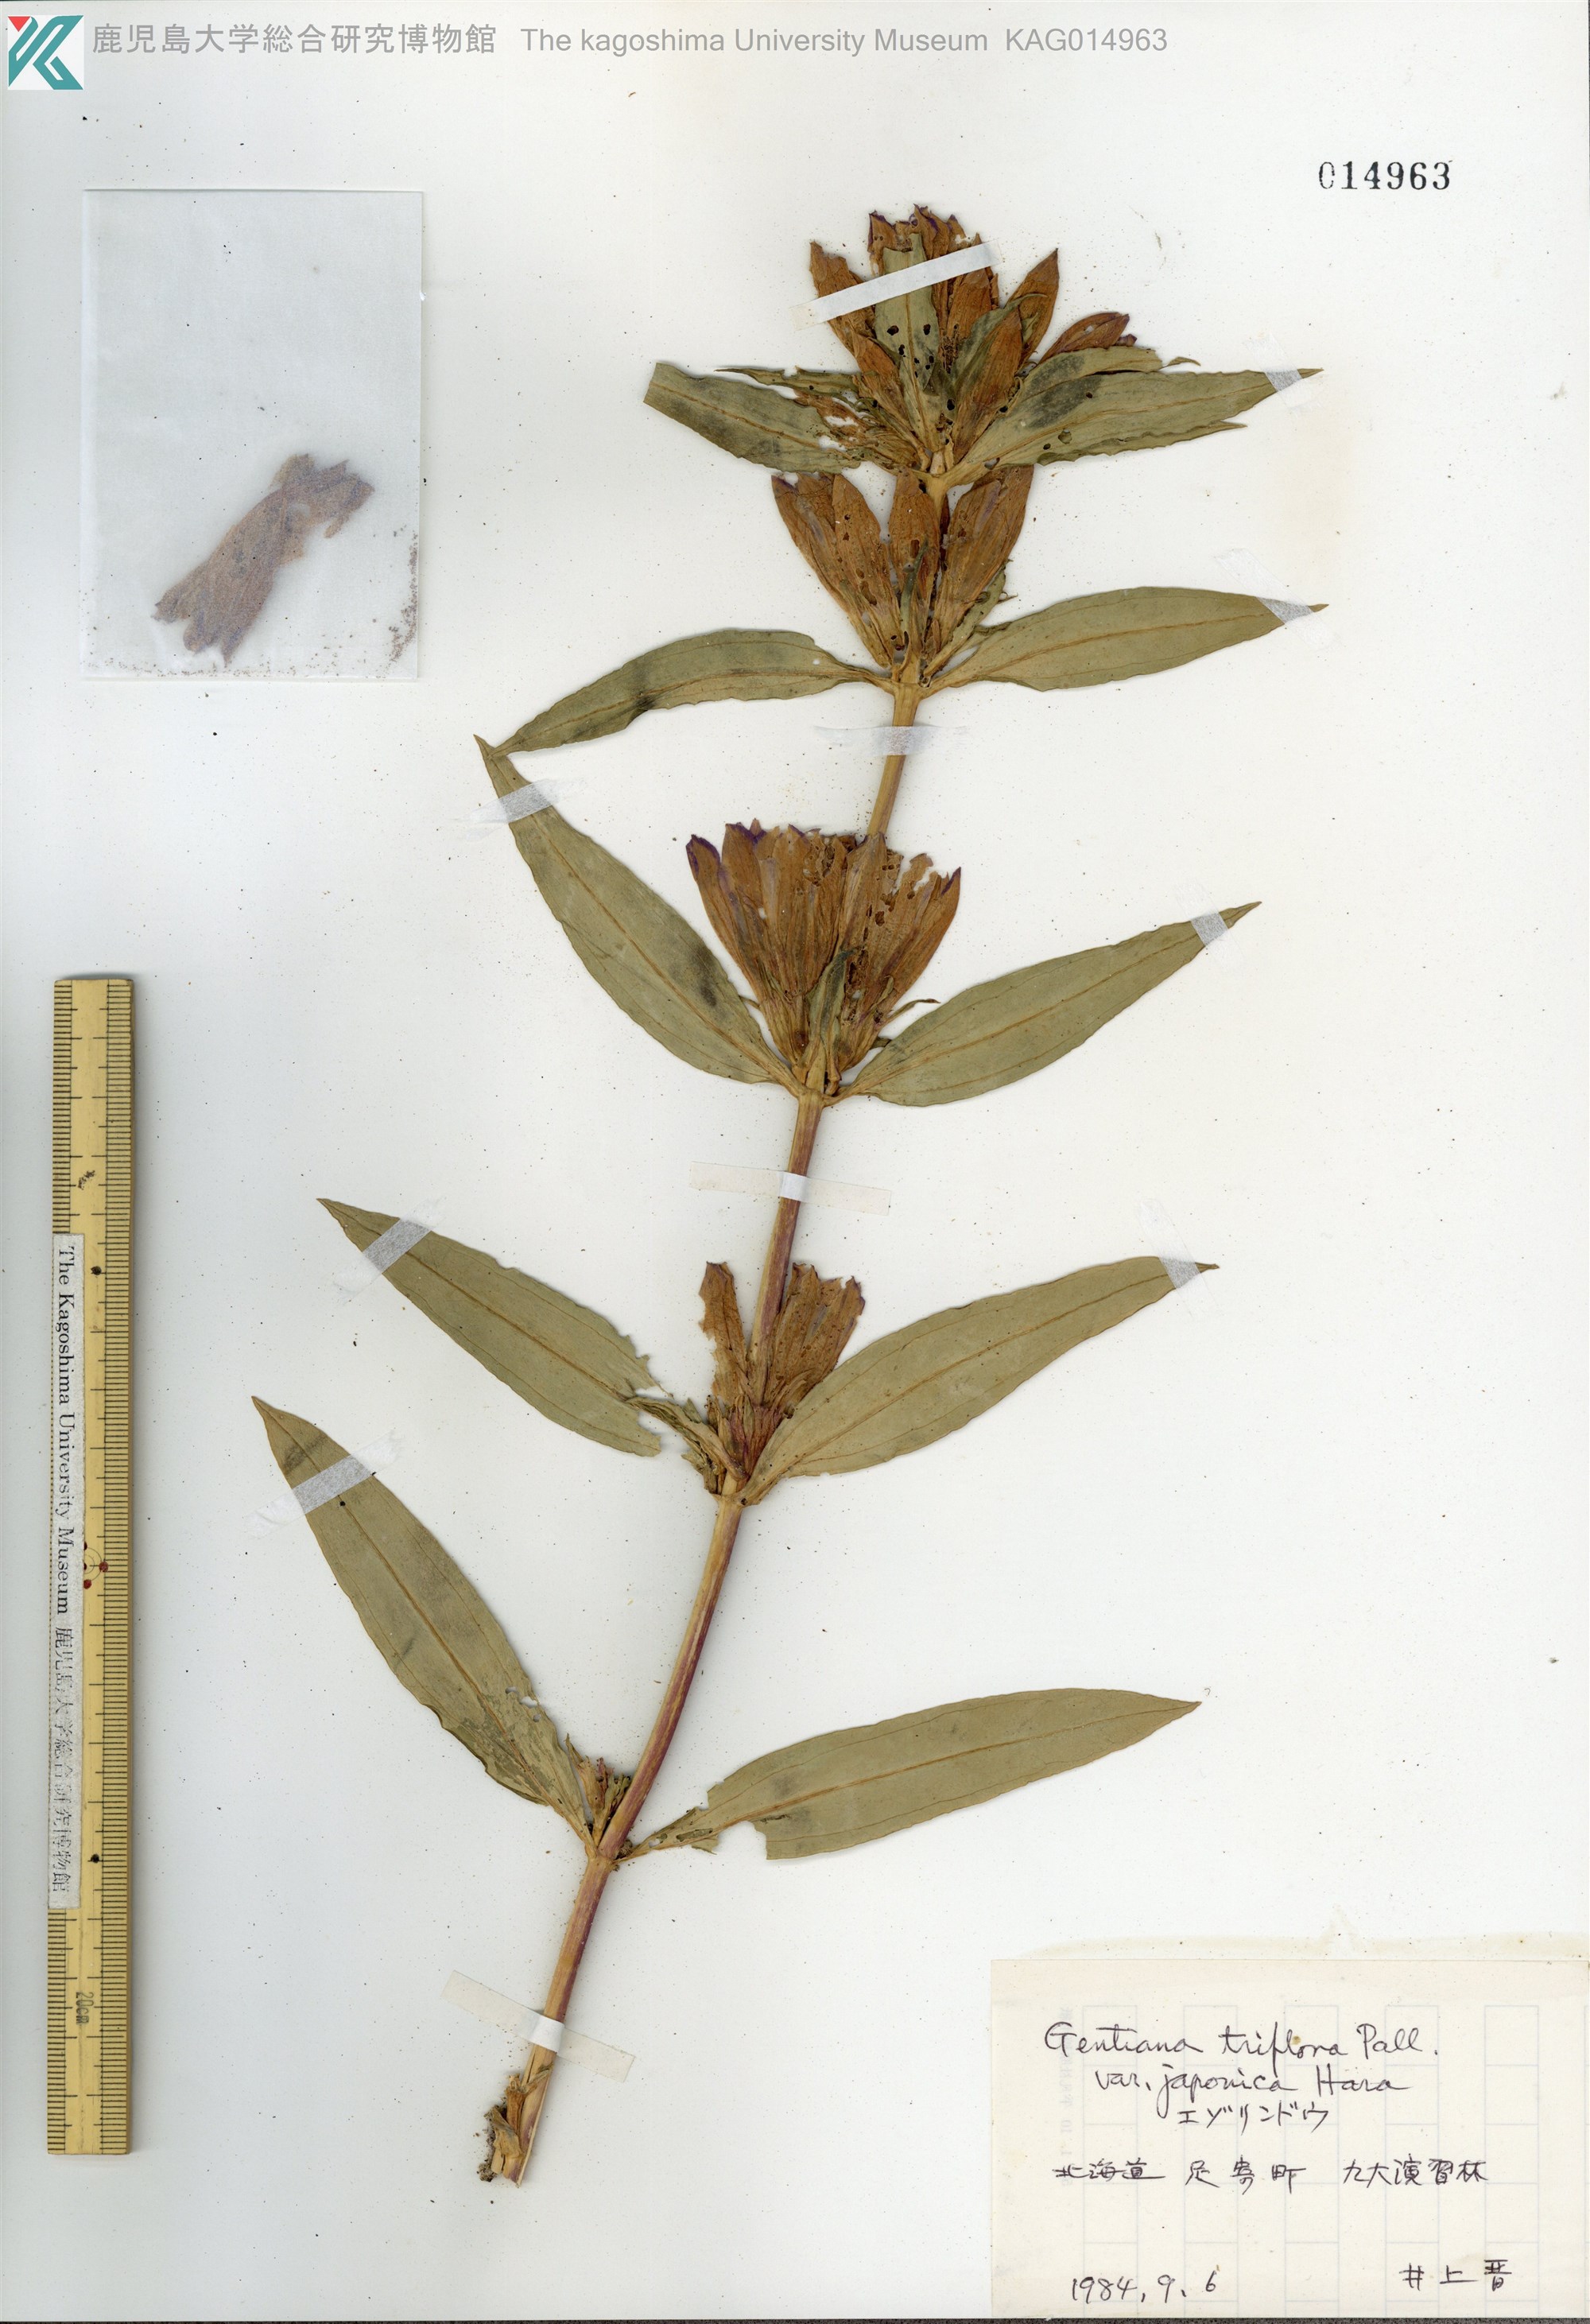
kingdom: Plantae
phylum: Tracheophyta
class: Magnoliopsida
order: Gentianales
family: Gentianaceae
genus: Gentiana
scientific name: Gentiana triflora
